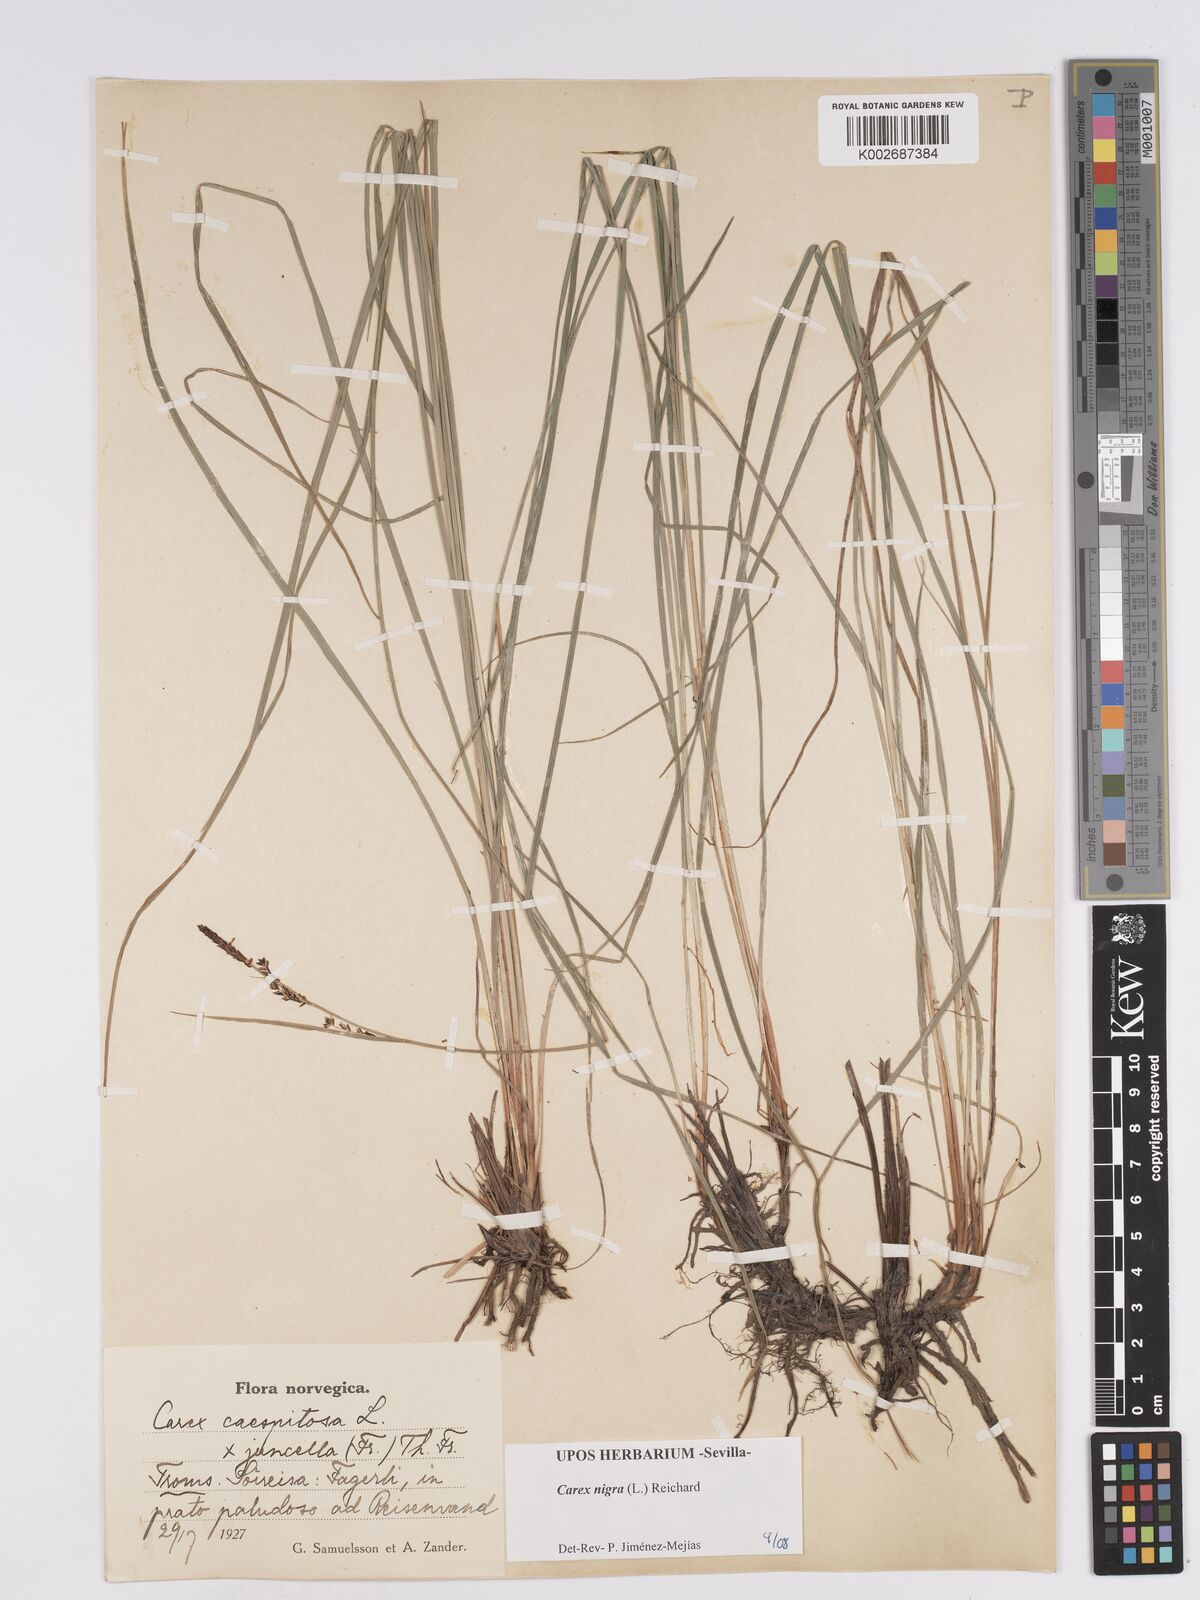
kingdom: Plantae
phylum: Tracheophyta
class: Liliopsida
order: Poales
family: Cyperaceae
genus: Carex
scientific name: Carex nigra
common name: Common sedge
